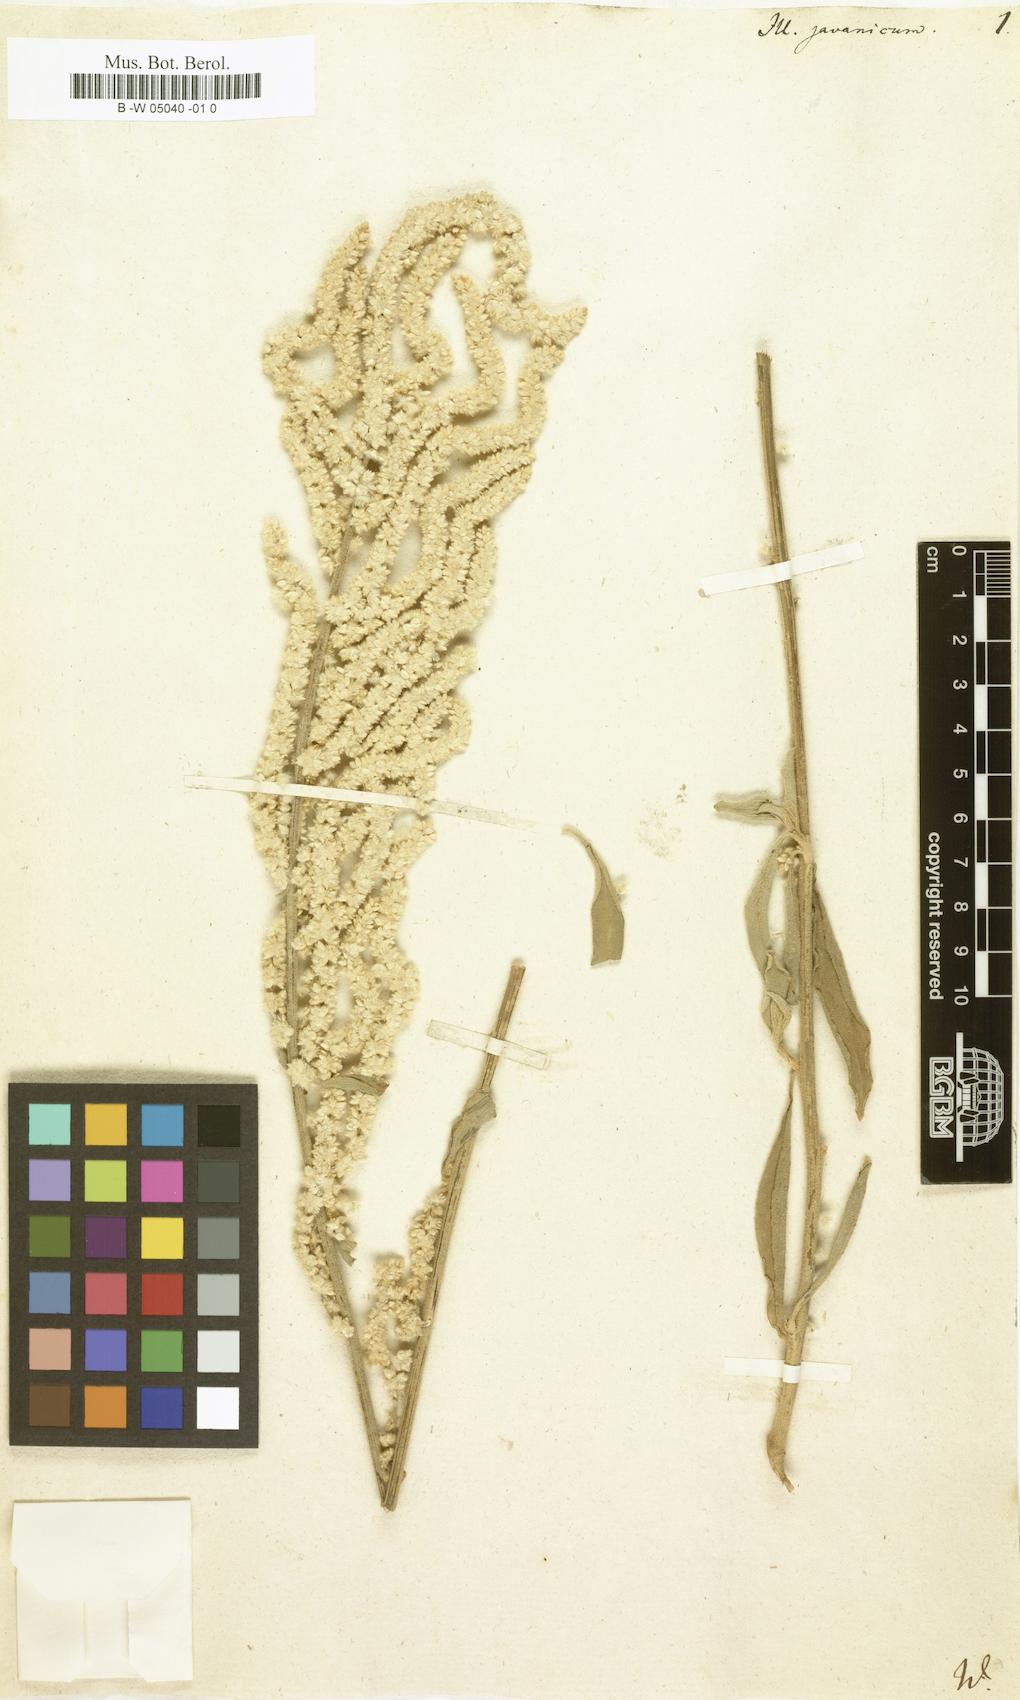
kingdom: Plantae
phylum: Tracheophyta
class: Magnoliopsida
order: Caryophyllales
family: Amaranthaceae
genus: Aerva
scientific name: Aerva javanica
